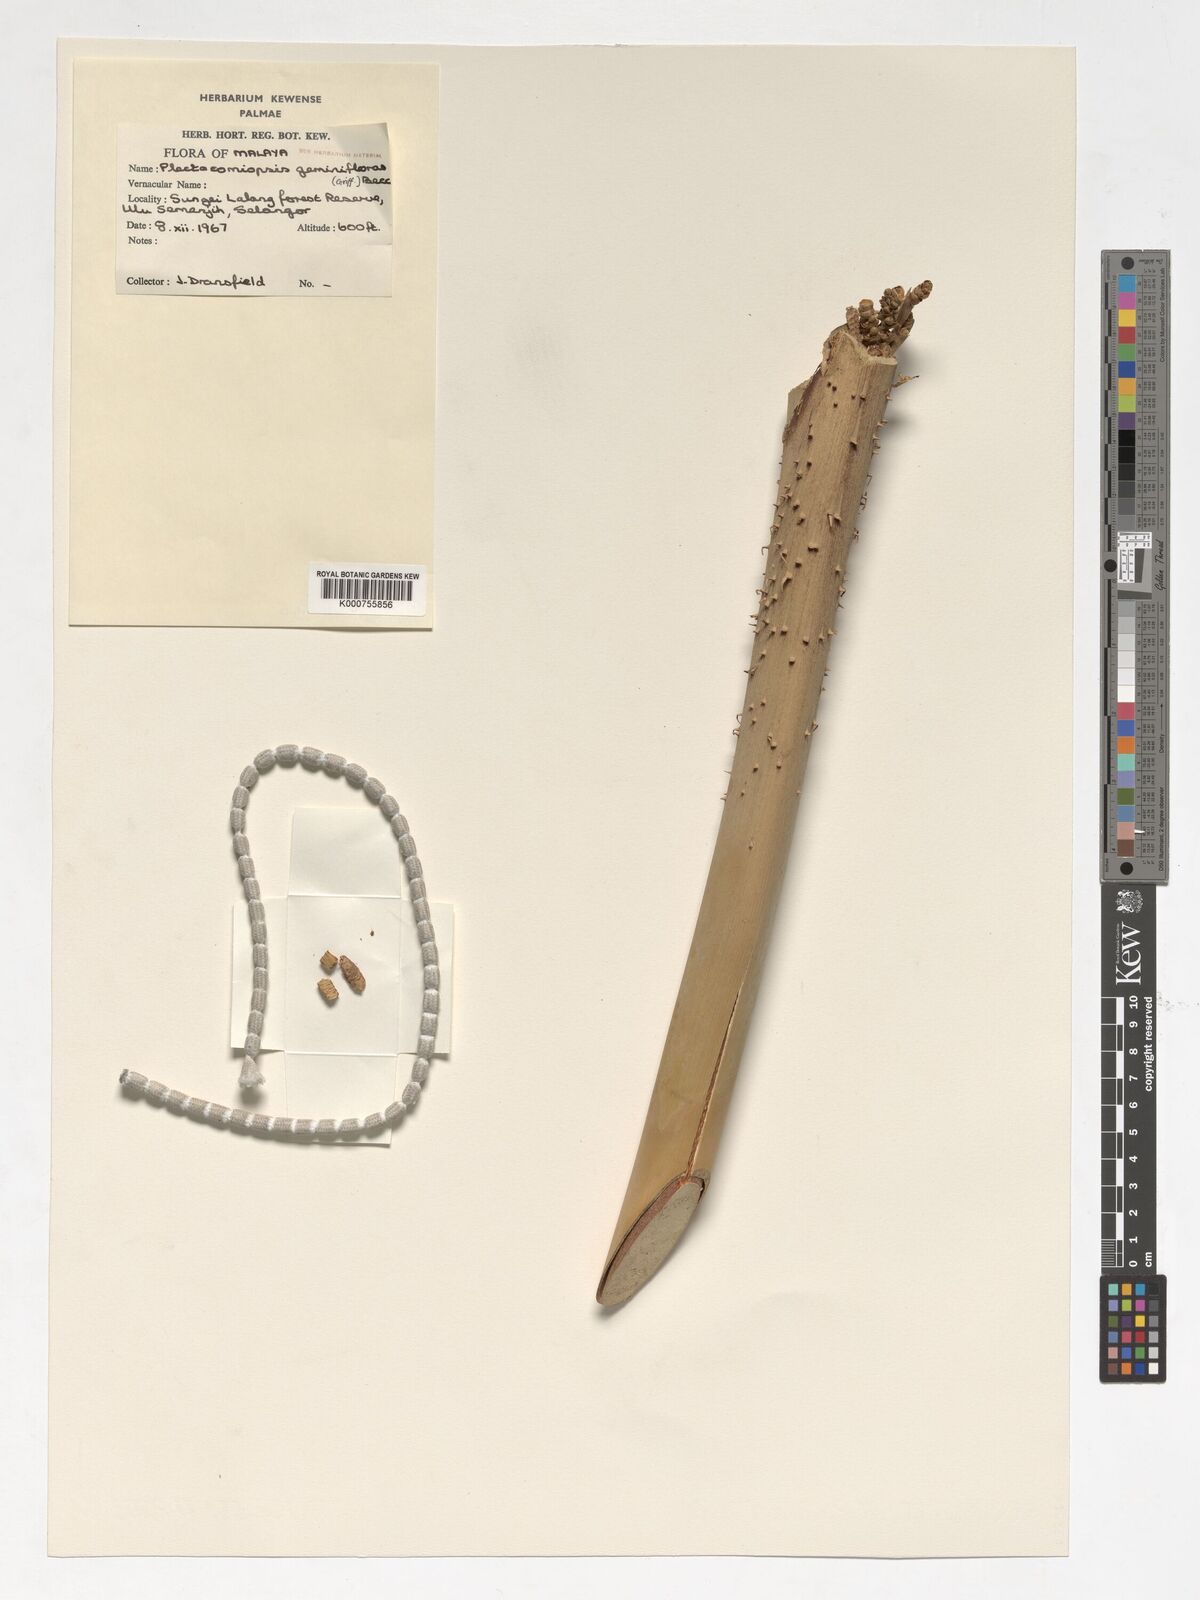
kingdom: Plantae
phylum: Tracheophyta
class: Liliopsida
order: Arecales
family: Arecaceae
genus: Plectocomiopsis
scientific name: Plectocomiopsis geminiflora
